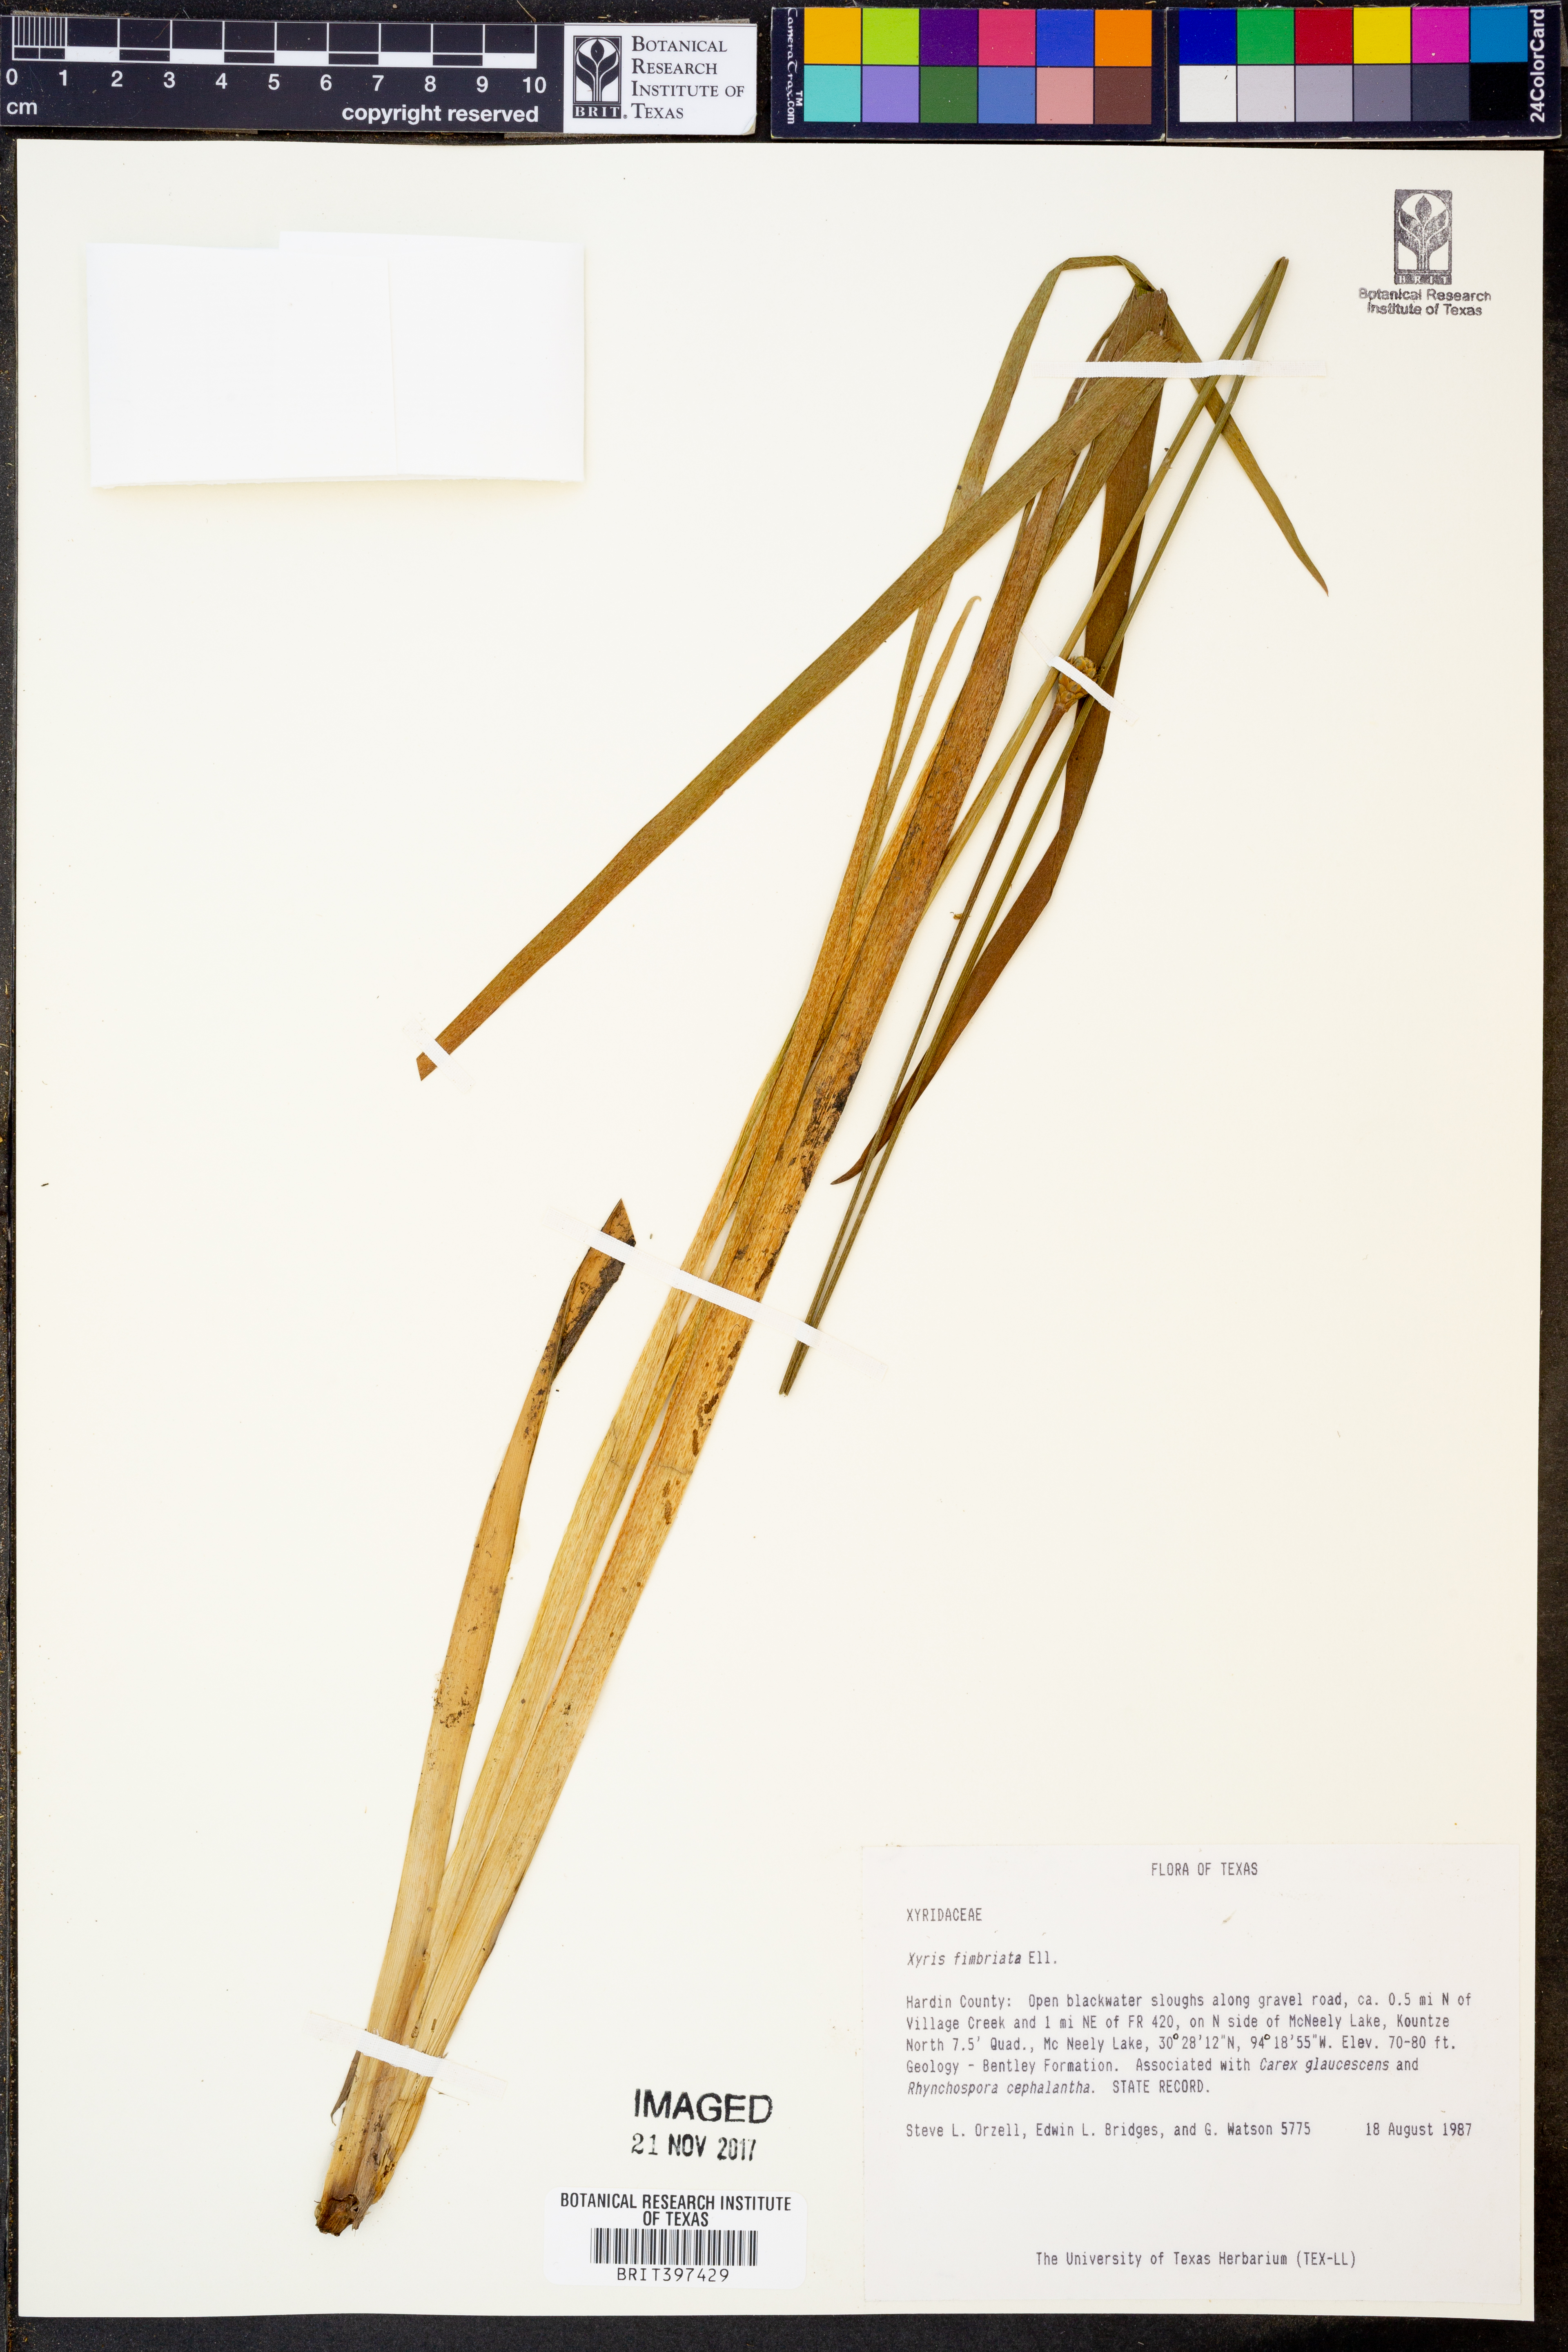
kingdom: Plantae
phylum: Tracheophyta
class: Liliopsida
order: Poales
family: Xyridaceae
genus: Xyris
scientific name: Xyris fimbriata
